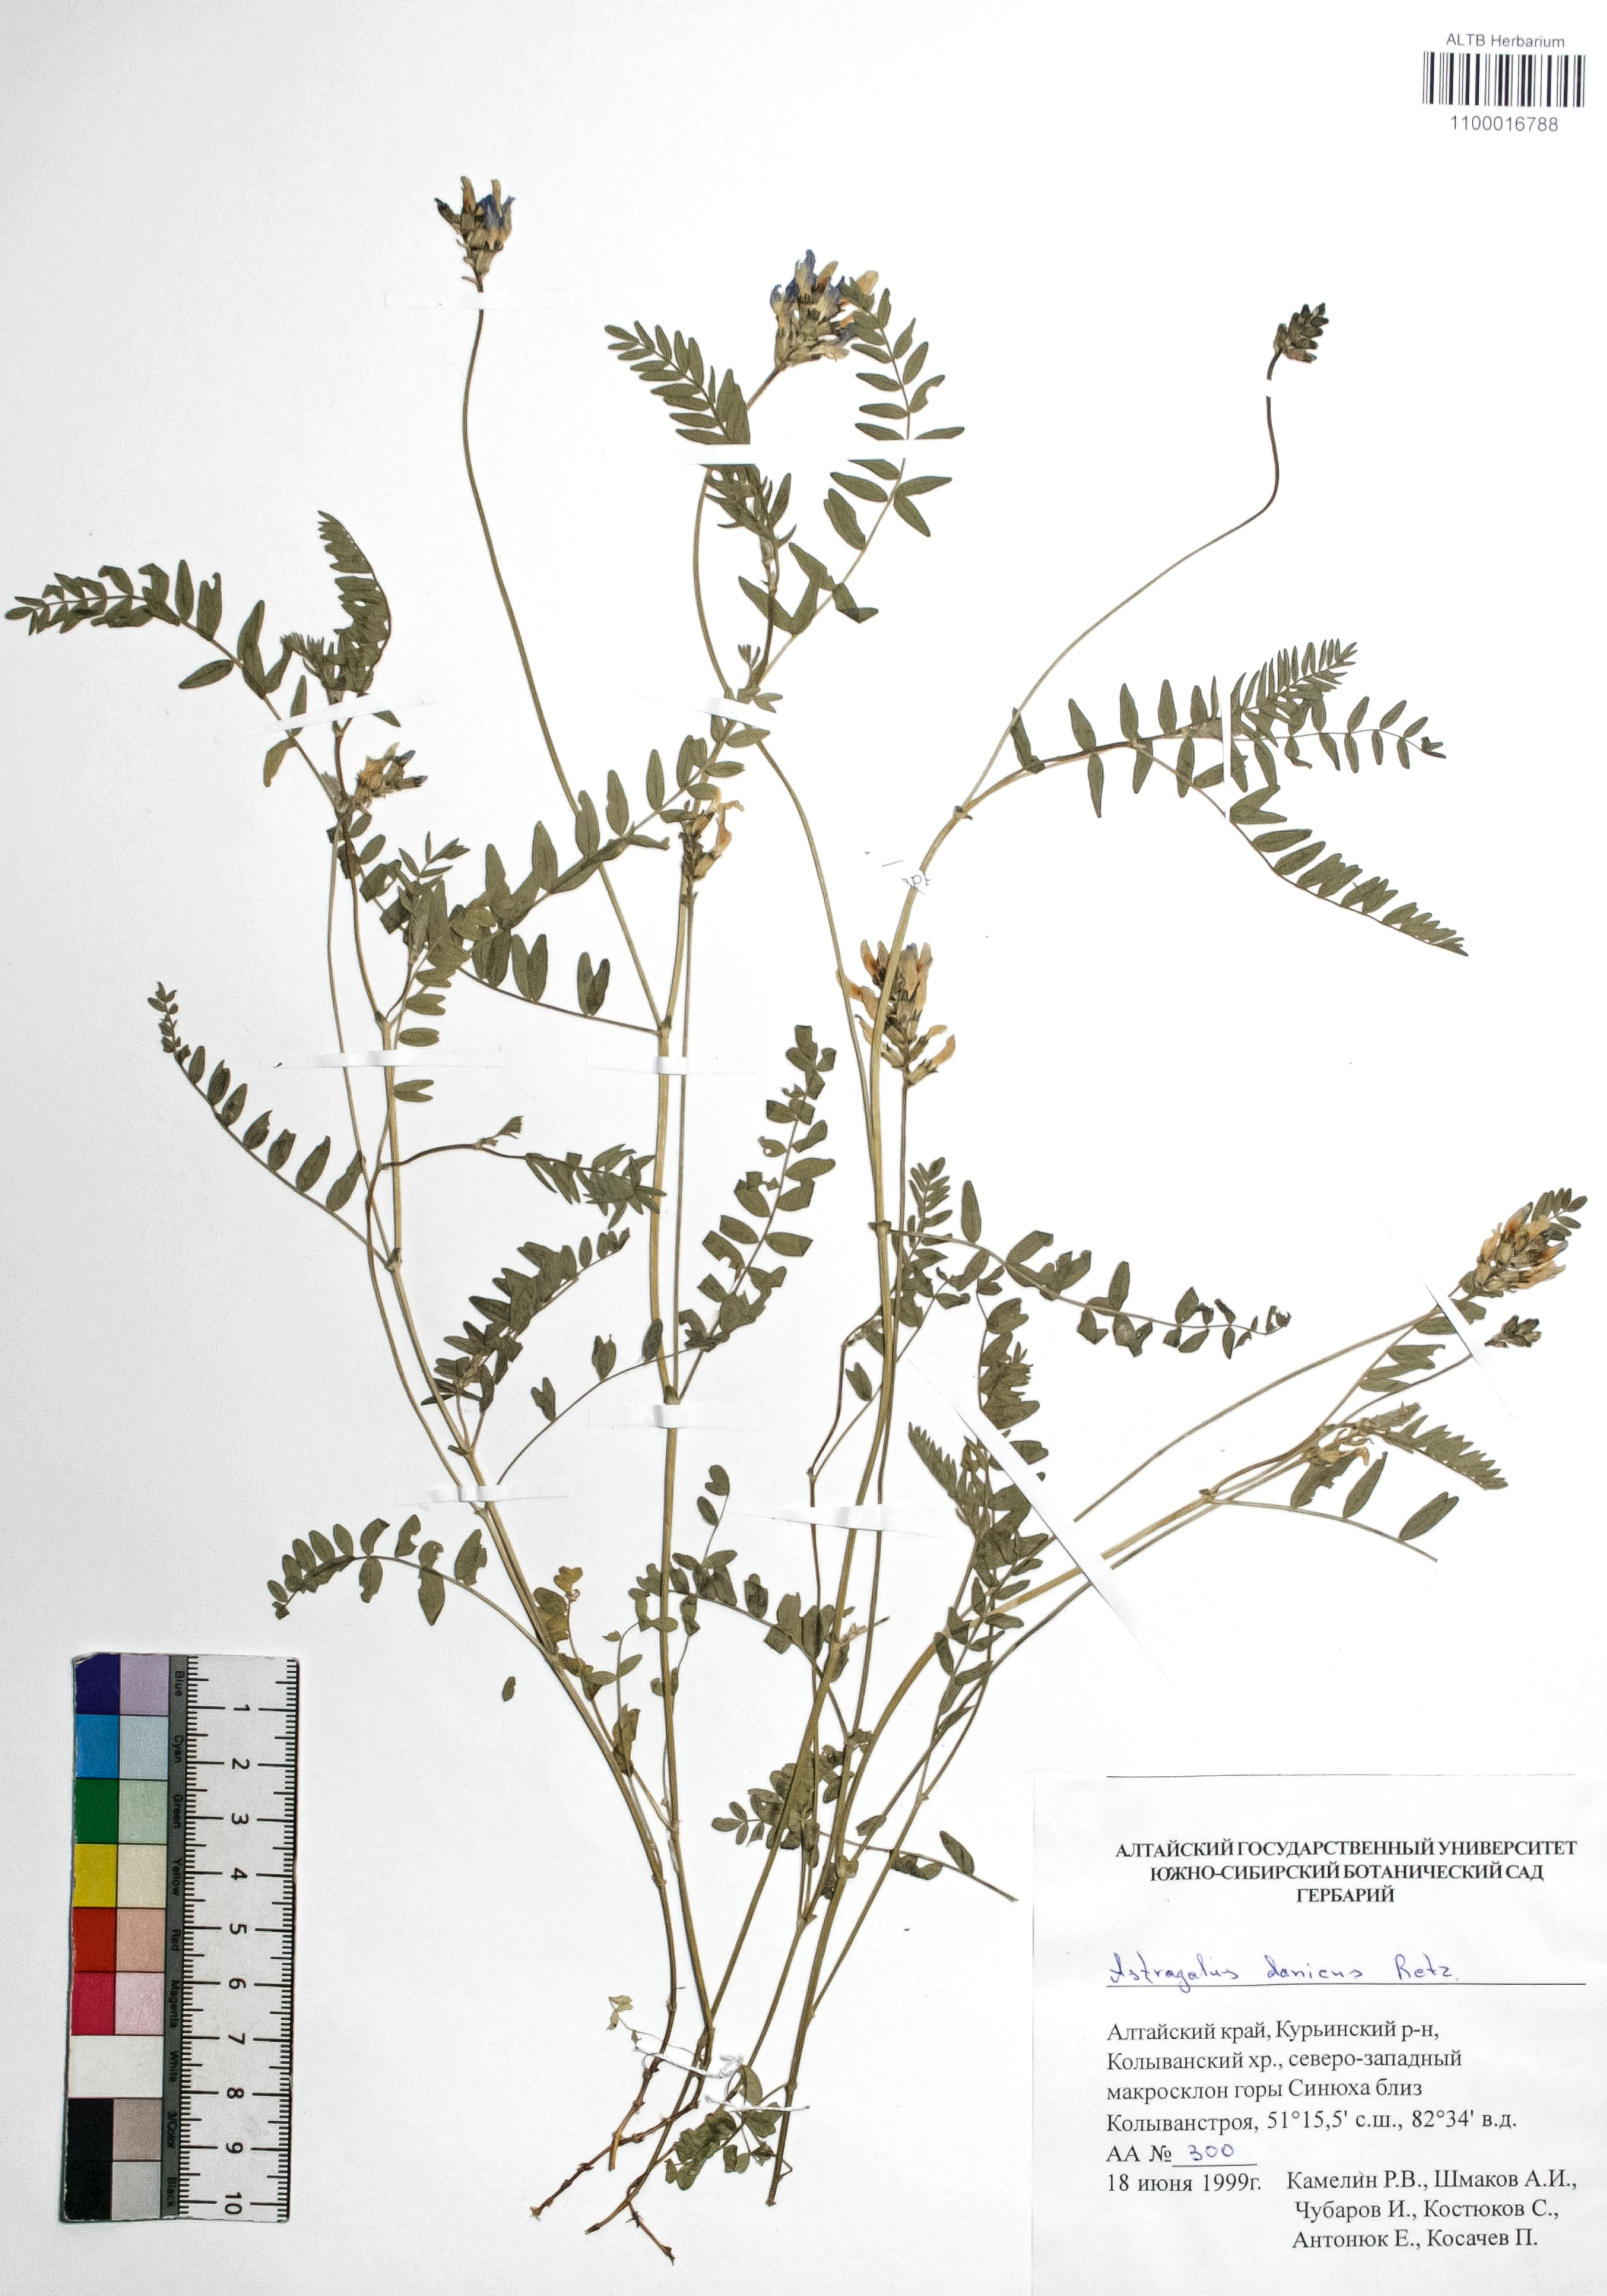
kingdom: Plantae
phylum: Tracheophyta
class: Magnoliopsida
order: Fabales
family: Fabaceae
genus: Astragalus
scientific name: Astragalus danicus
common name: Purple milk-vetch
